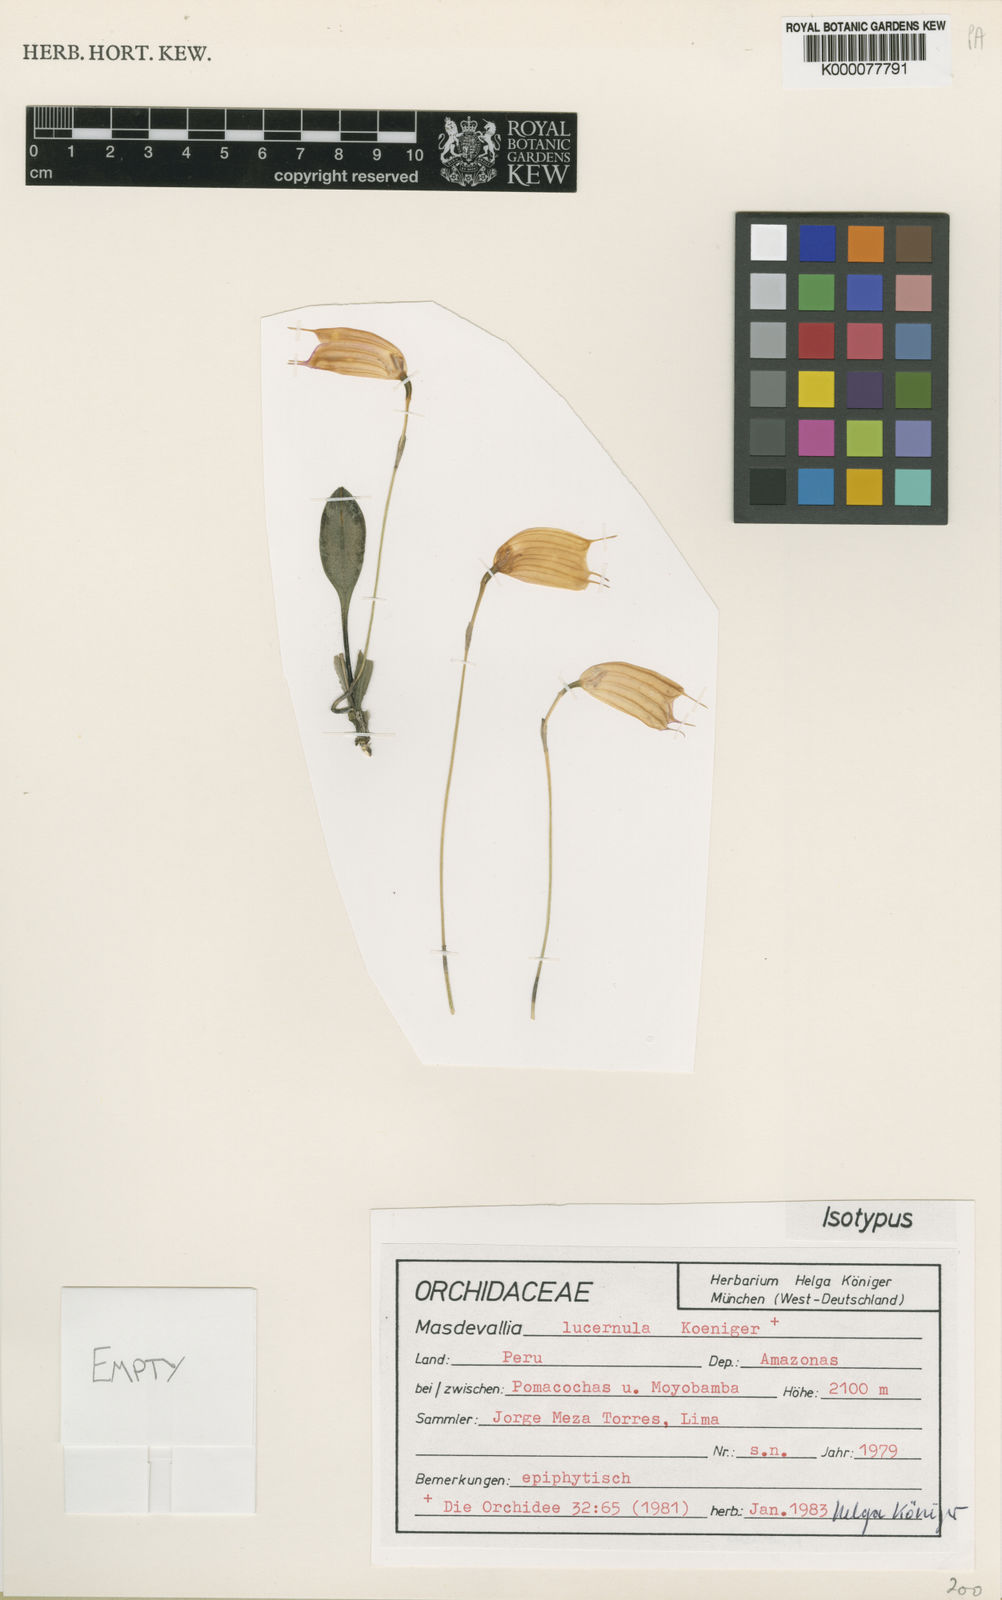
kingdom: Plantae
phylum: Tracheophyta
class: Liliopsida
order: Asparagales
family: Orchidaceae
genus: Masdevallia
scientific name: Masdevallia
